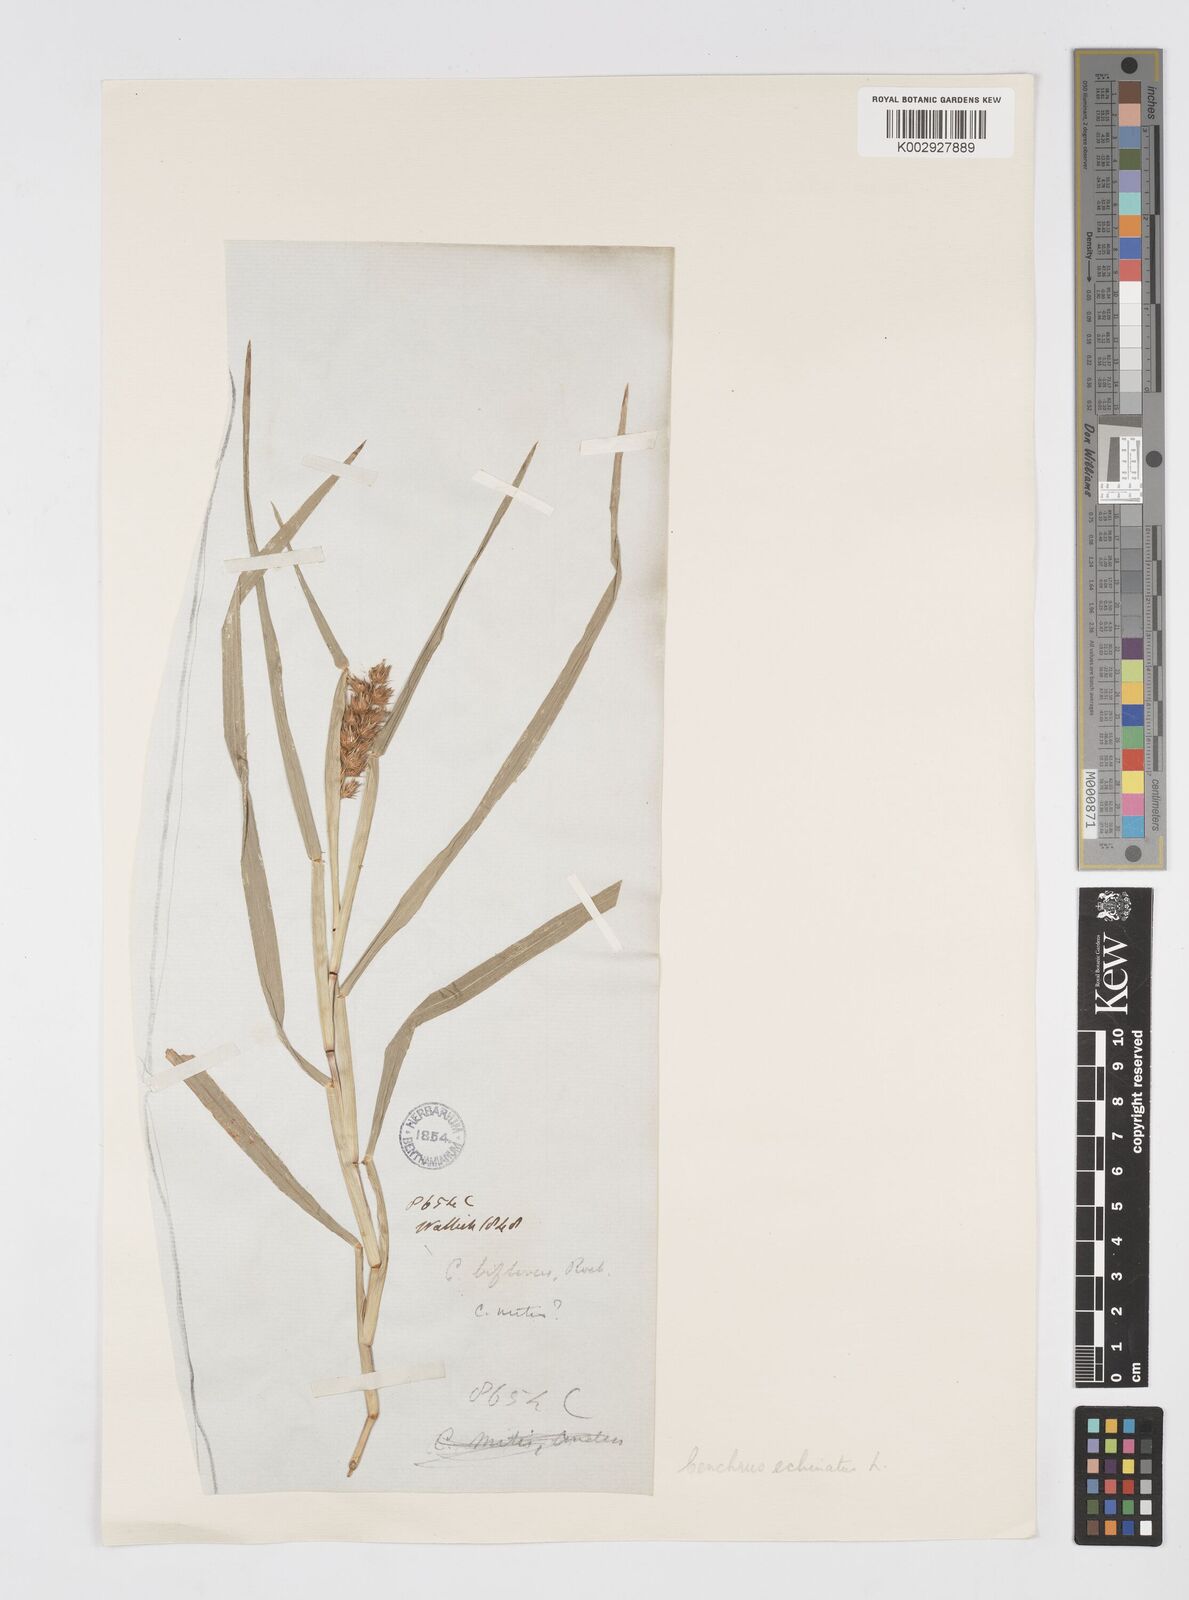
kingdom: Plantae
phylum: Tracheophyta
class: Liliopsida
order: Poales
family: Poaceae
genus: Cenchrus
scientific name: Cenchrus echinatus
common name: Southern sandbur
